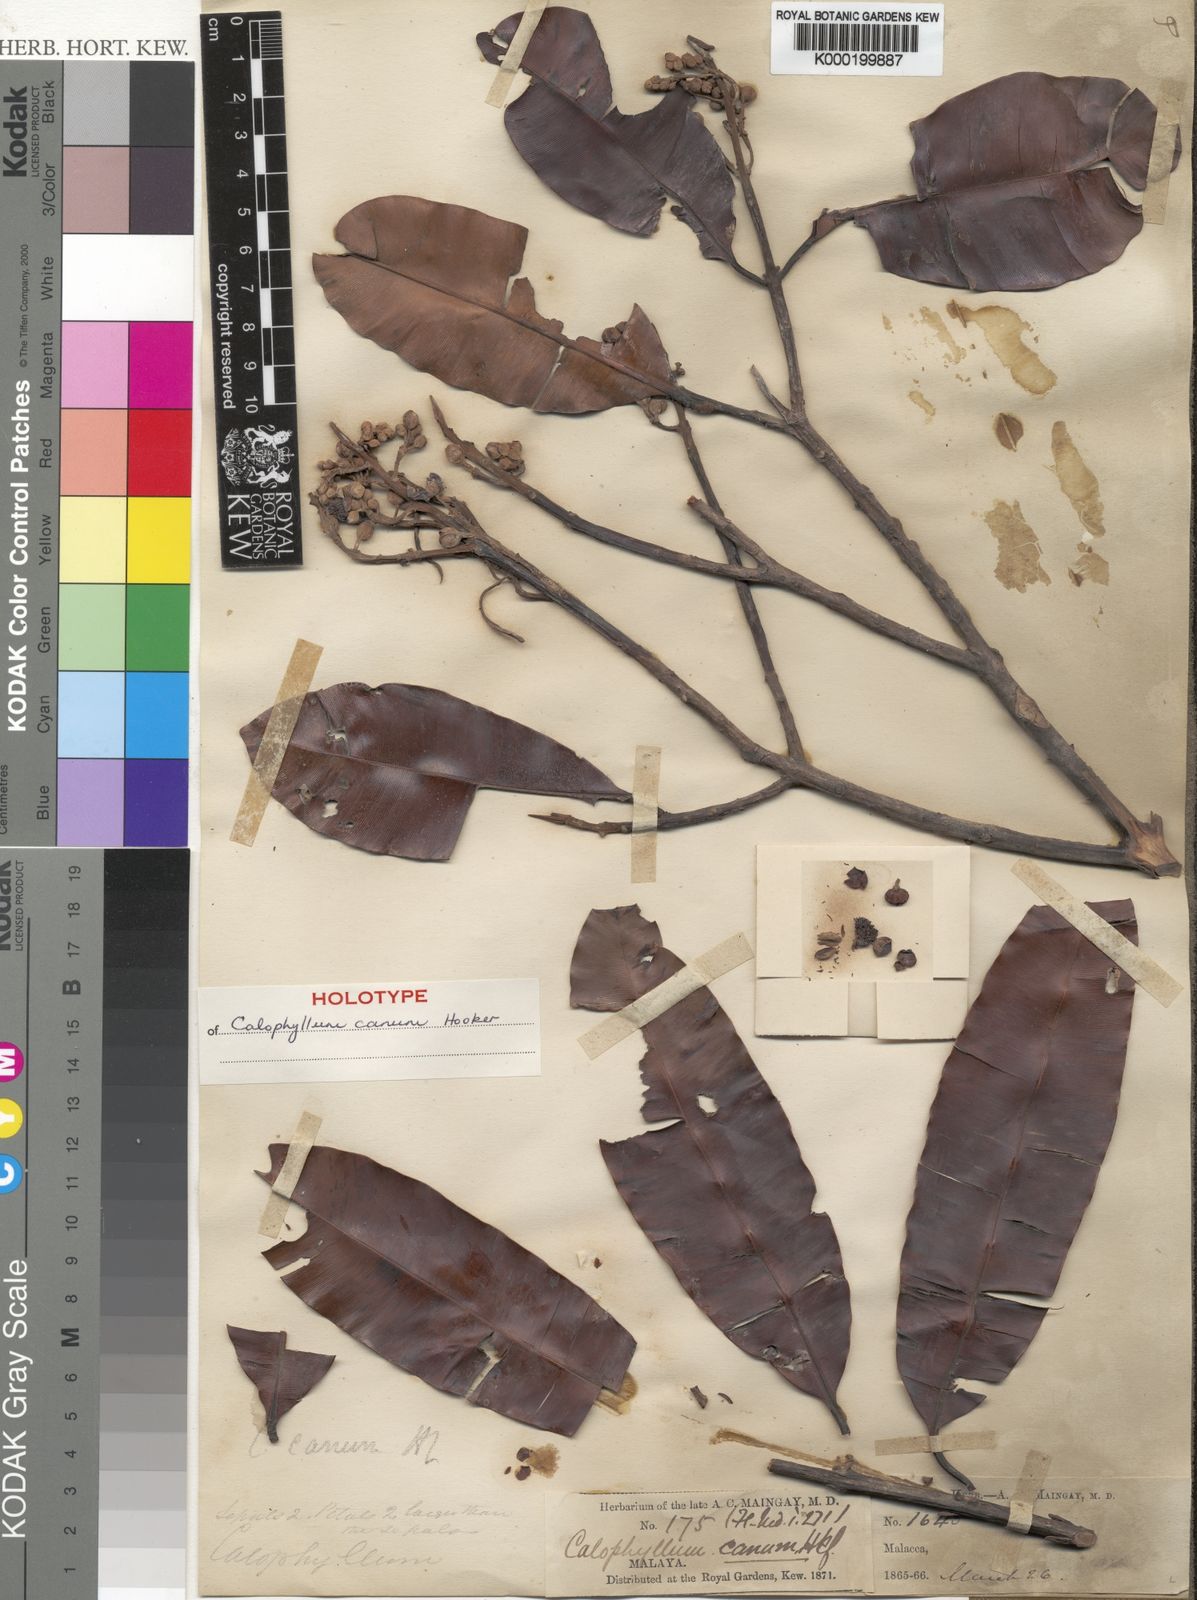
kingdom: Plantae
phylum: Tracheophyta
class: Magnoliopsida
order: Malpighiales
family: Calophyllaceae
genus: Calophyllum
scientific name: Calophyllum
